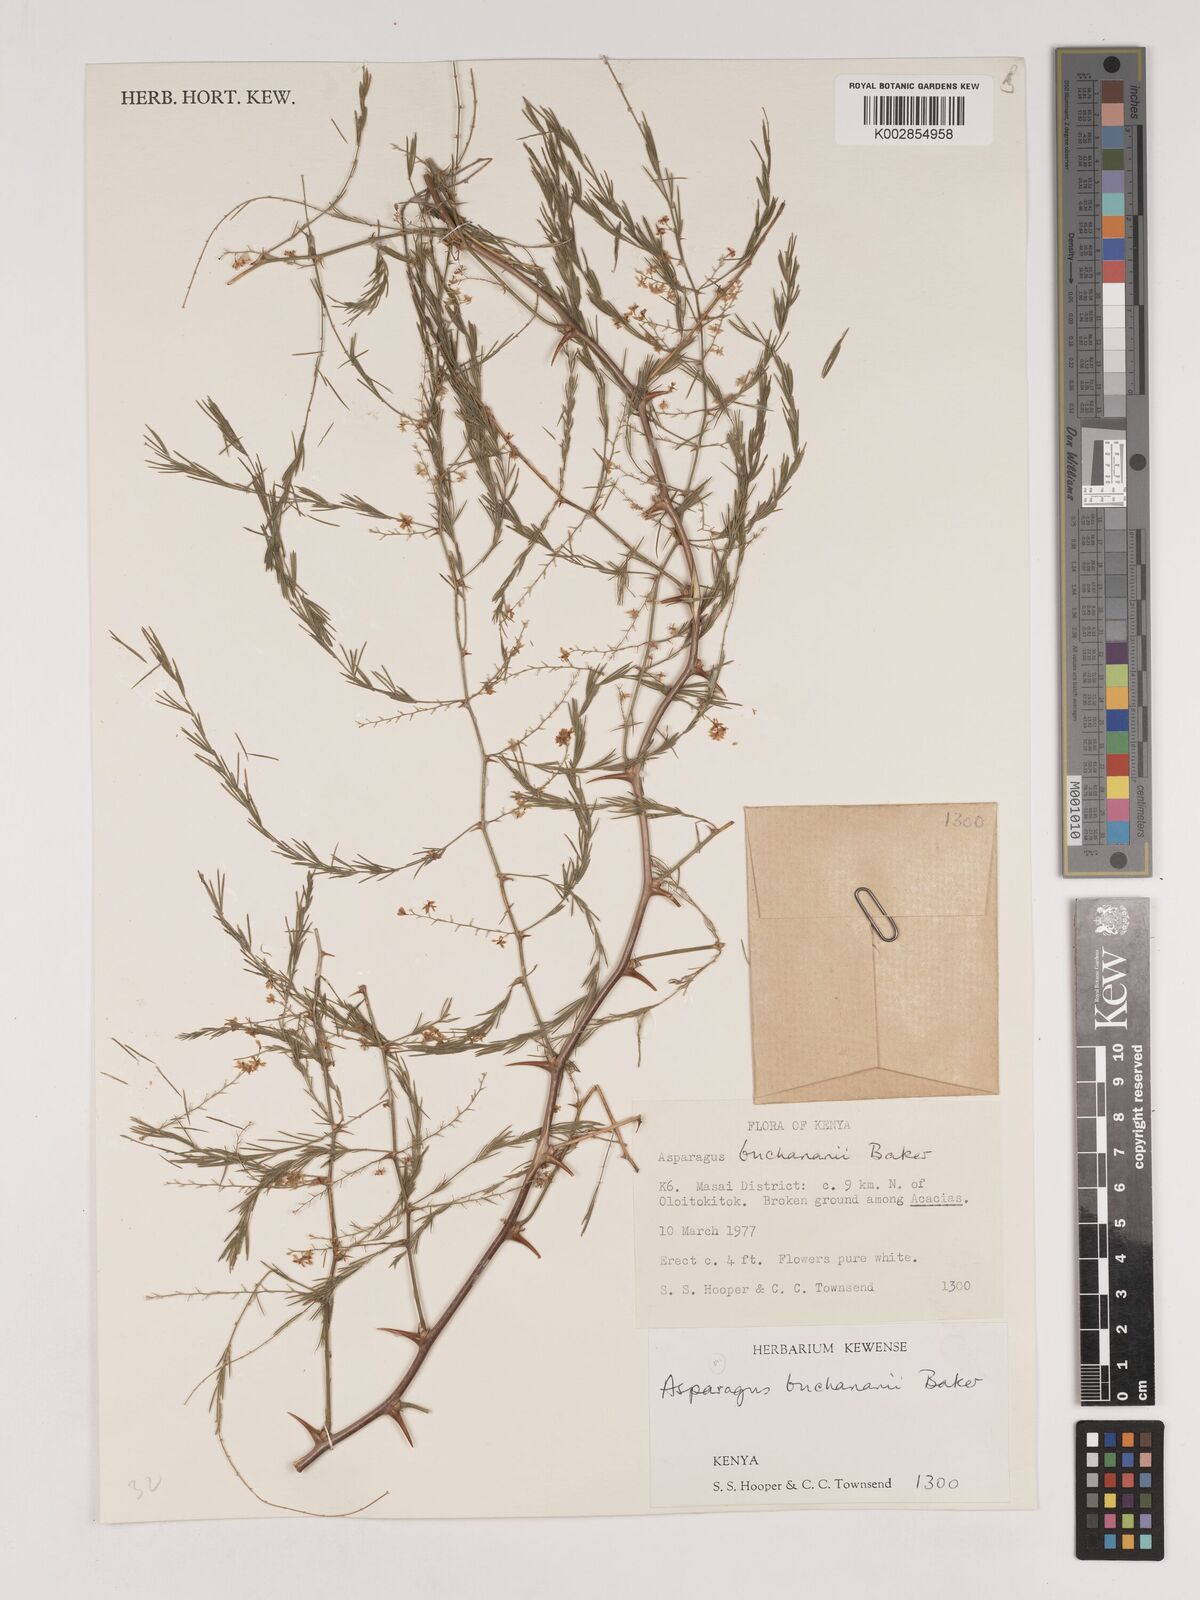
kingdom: Plantae
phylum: Tracheophyta
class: Liliopsida
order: Asparagales
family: Asparagaceae
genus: Asparagus
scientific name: Asparagus buchananii
